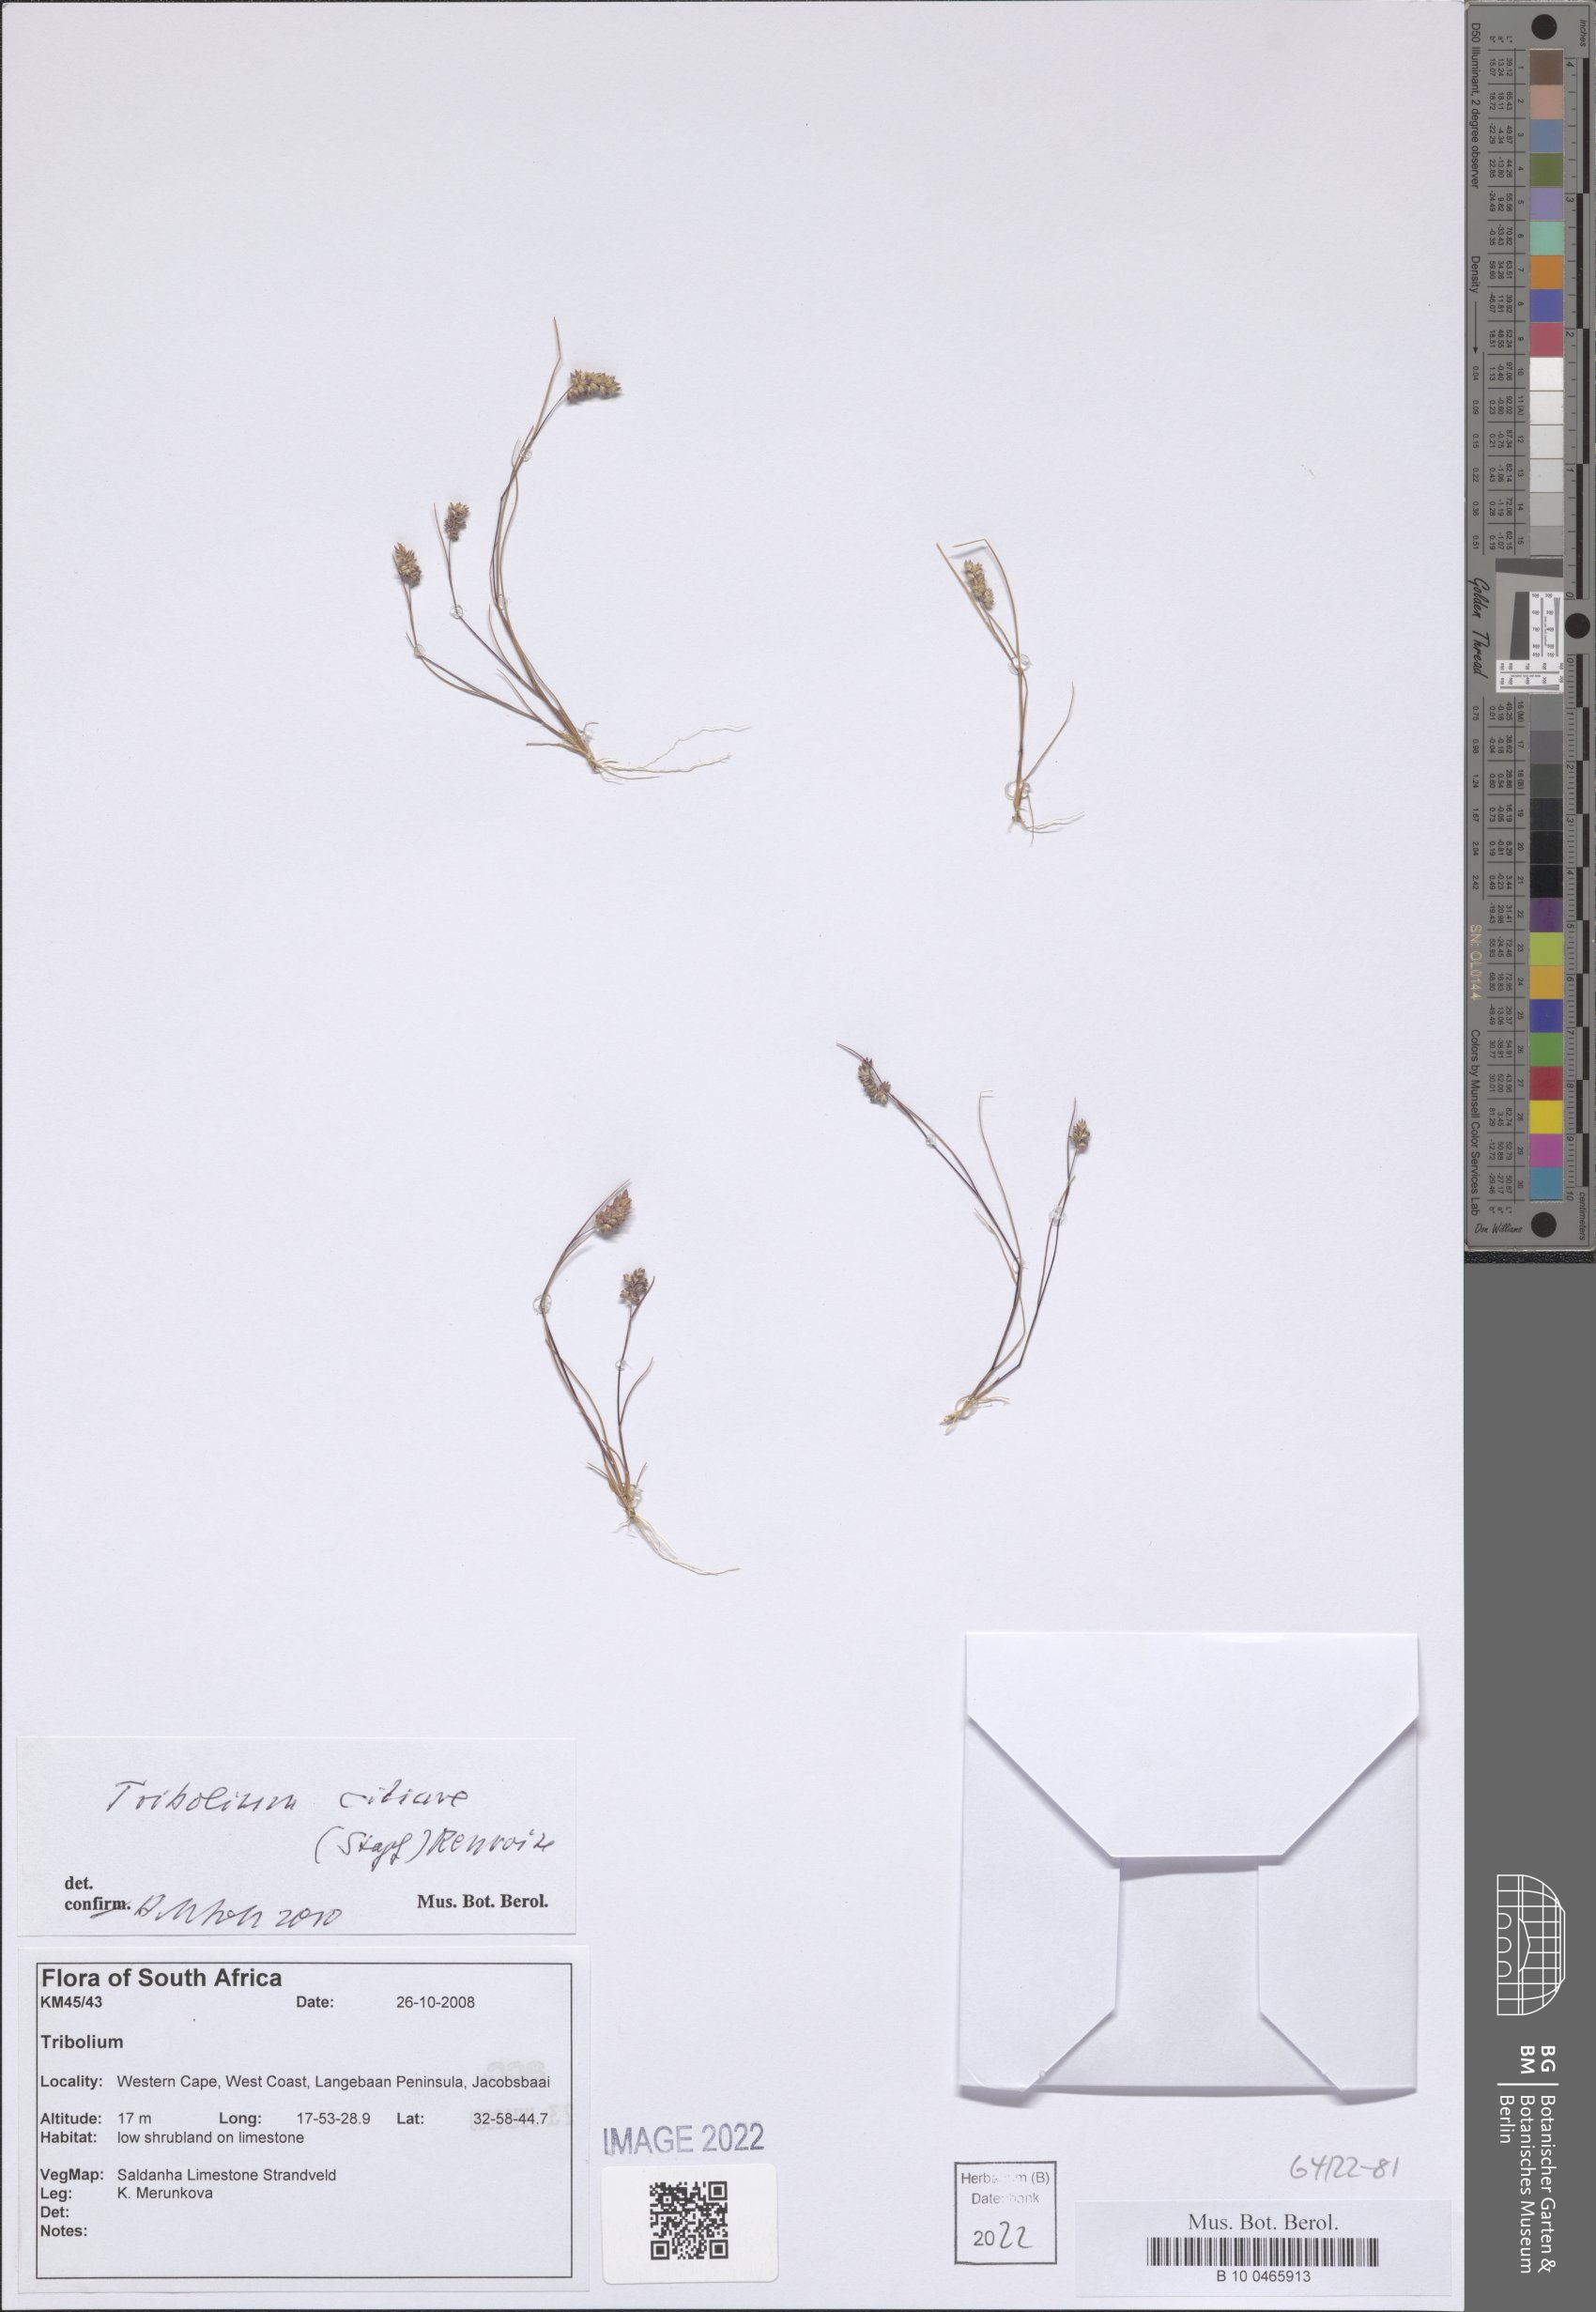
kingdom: Plantae
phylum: Tracheophyta
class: Liliopsida
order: Poales
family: Poaceae
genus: Tribolium
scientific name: Tribolium ciliare
